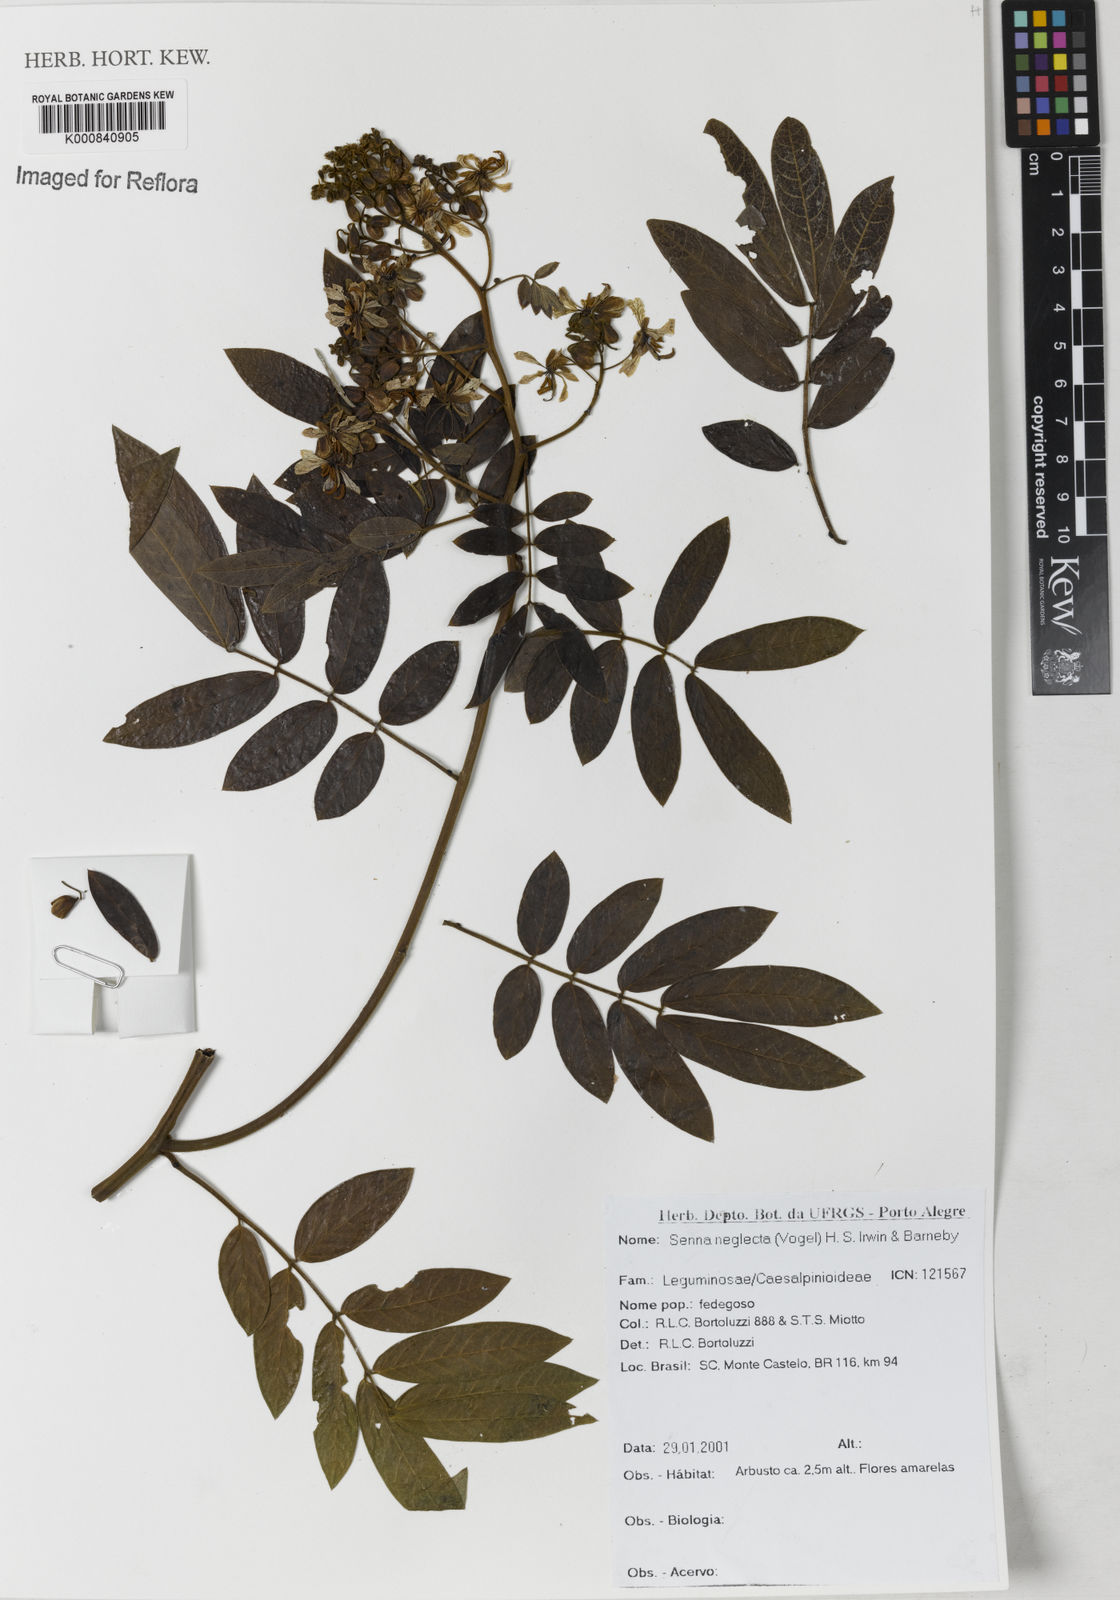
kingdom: Plantae
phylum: Tracheophyta
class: Magnoliopsida
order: Fabales
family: Fabaceae
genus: Senna
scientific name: Senna neglecta
